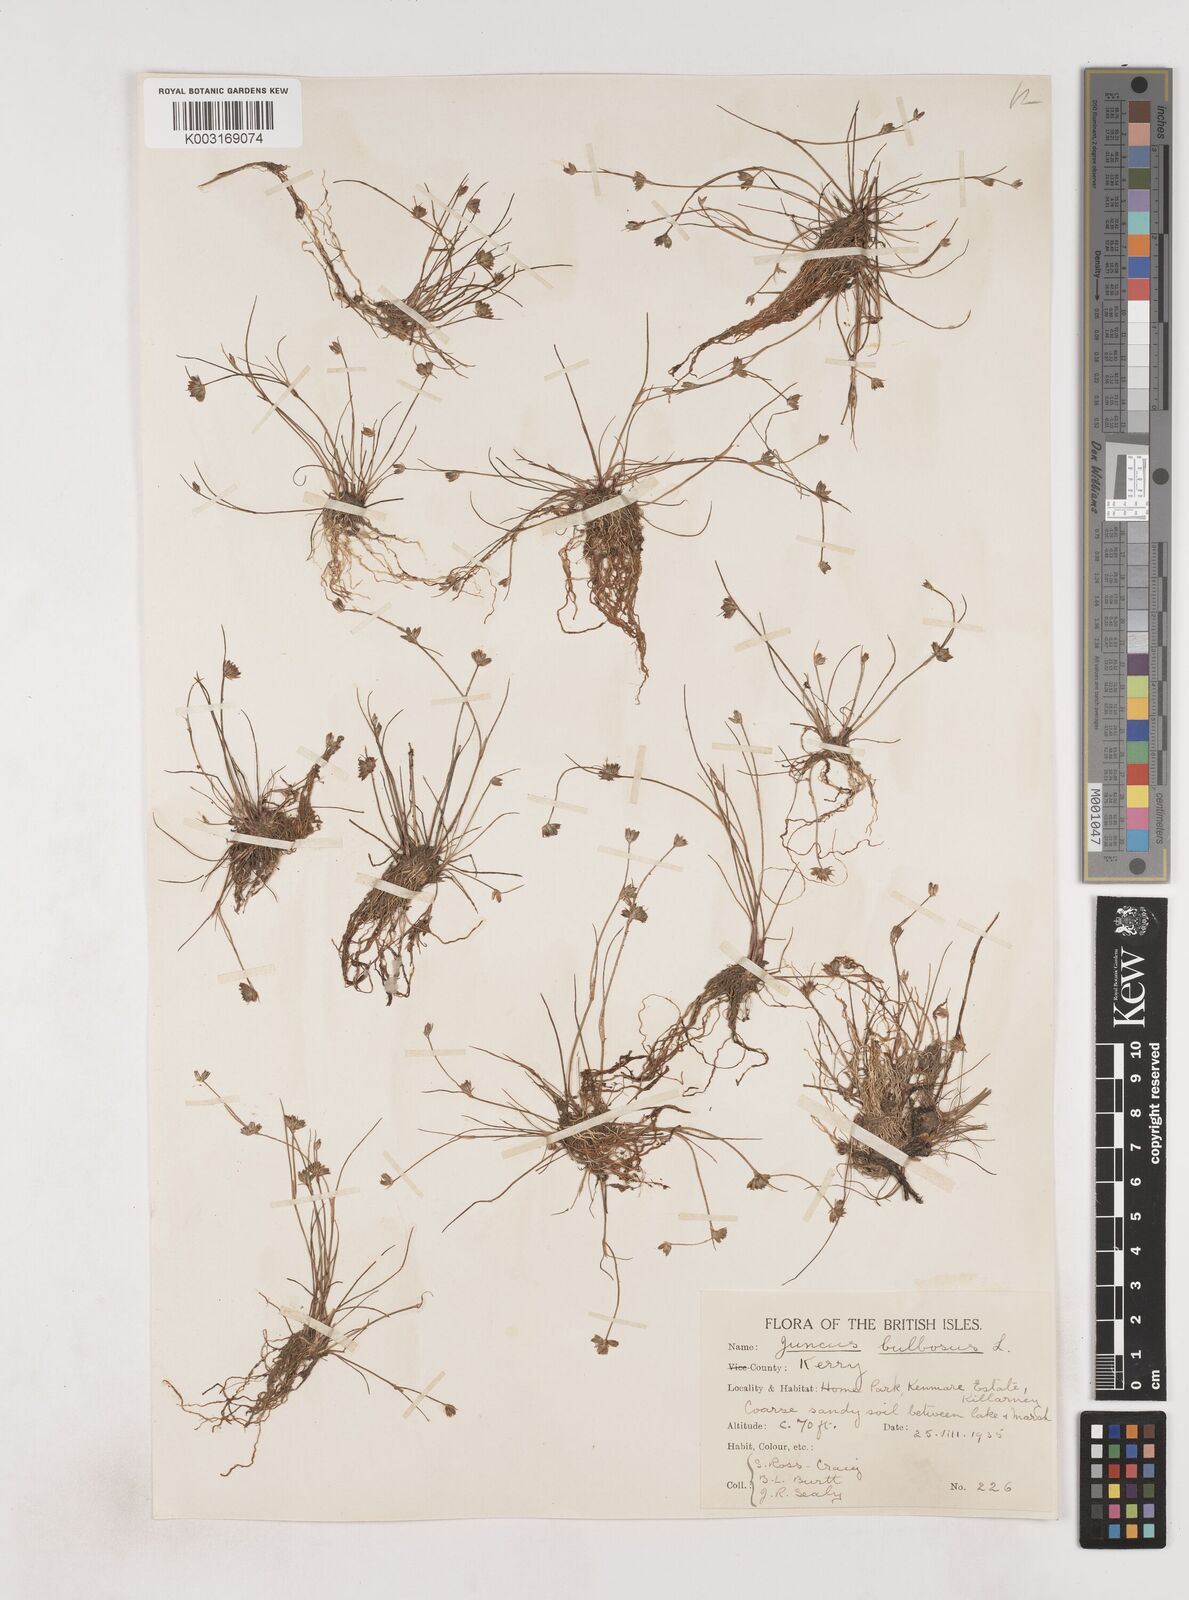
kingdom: Plantae
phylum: Tracheophyta
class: Liliopsida
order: Poales
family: Juncaceae
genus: Juncus
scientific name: Juncus bulbosus
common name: Bulbous rush
